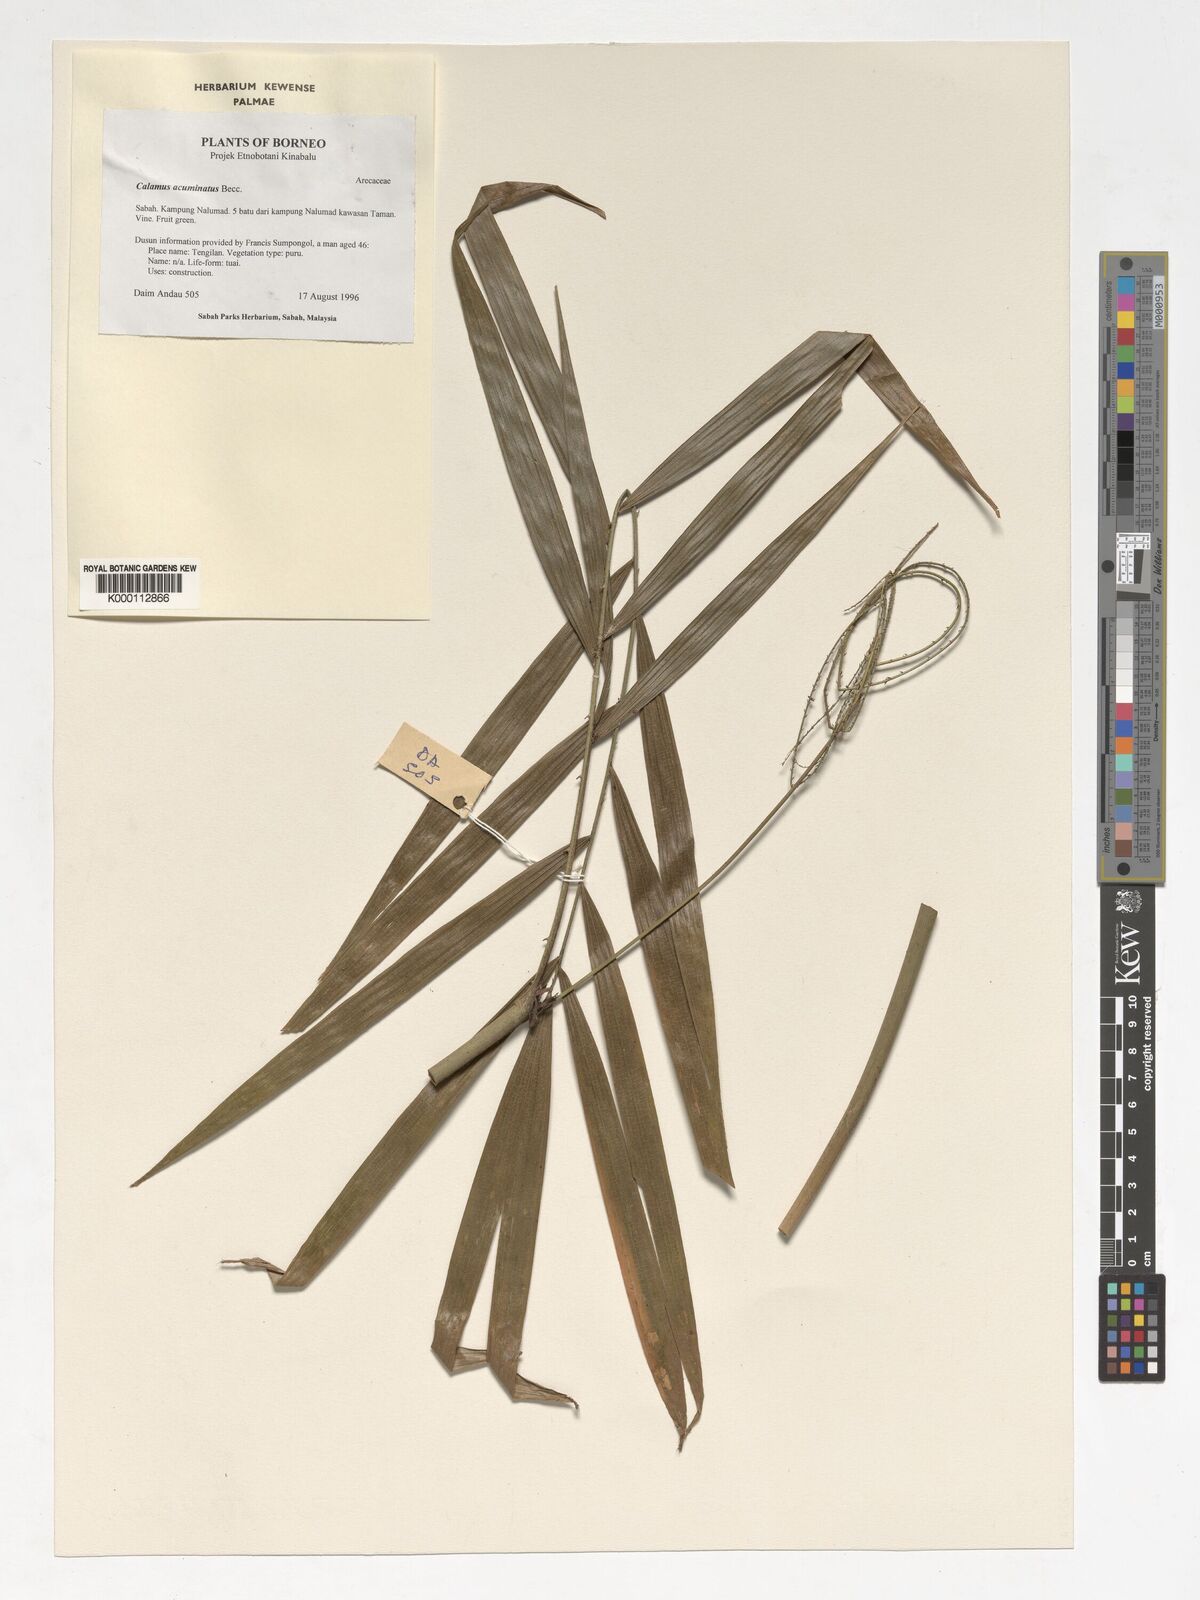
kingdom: Plantae
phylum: Tracheophyta
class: Liliopsida
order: Arecales
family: Arecaceae
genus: Calamus
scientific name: Calamus javensis
